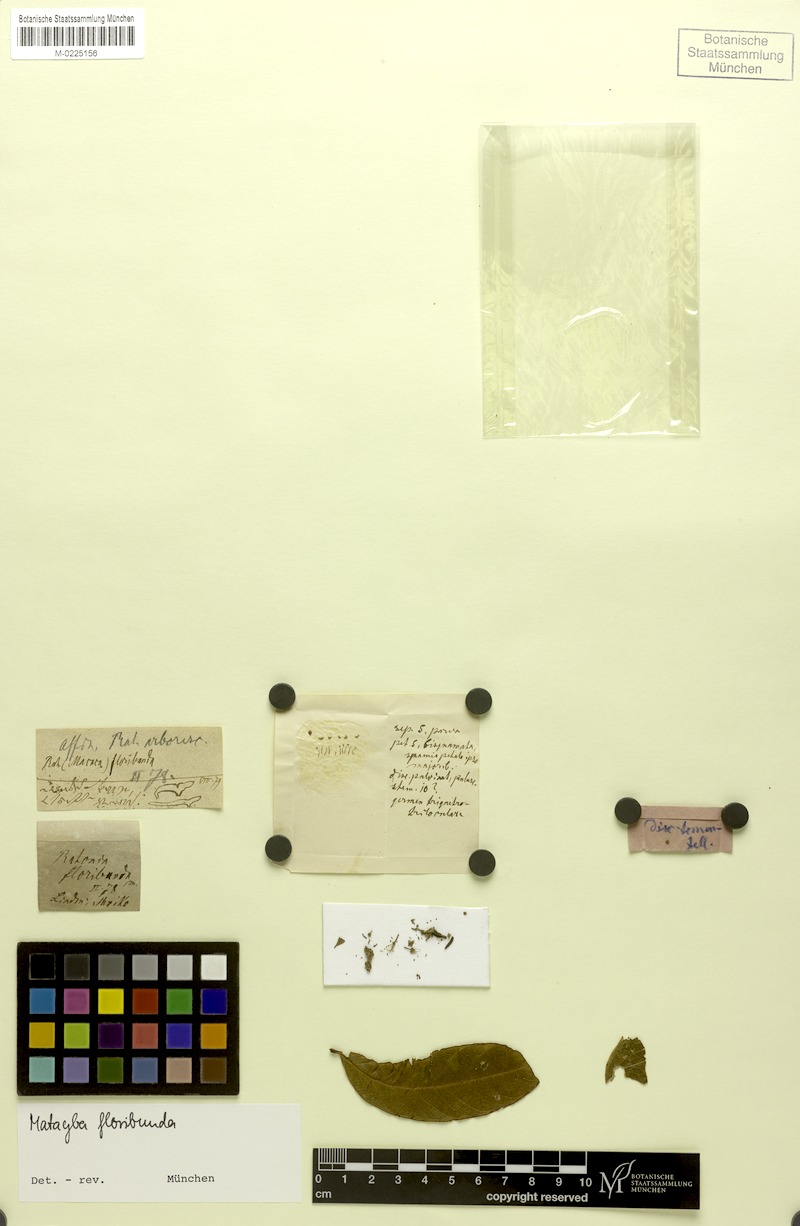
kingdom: Plantae
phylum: Tracheophyta
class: Magnoliopsida
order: Sapindales
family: Sapindaceae
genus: Matayba
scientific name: Matayba floribunda
